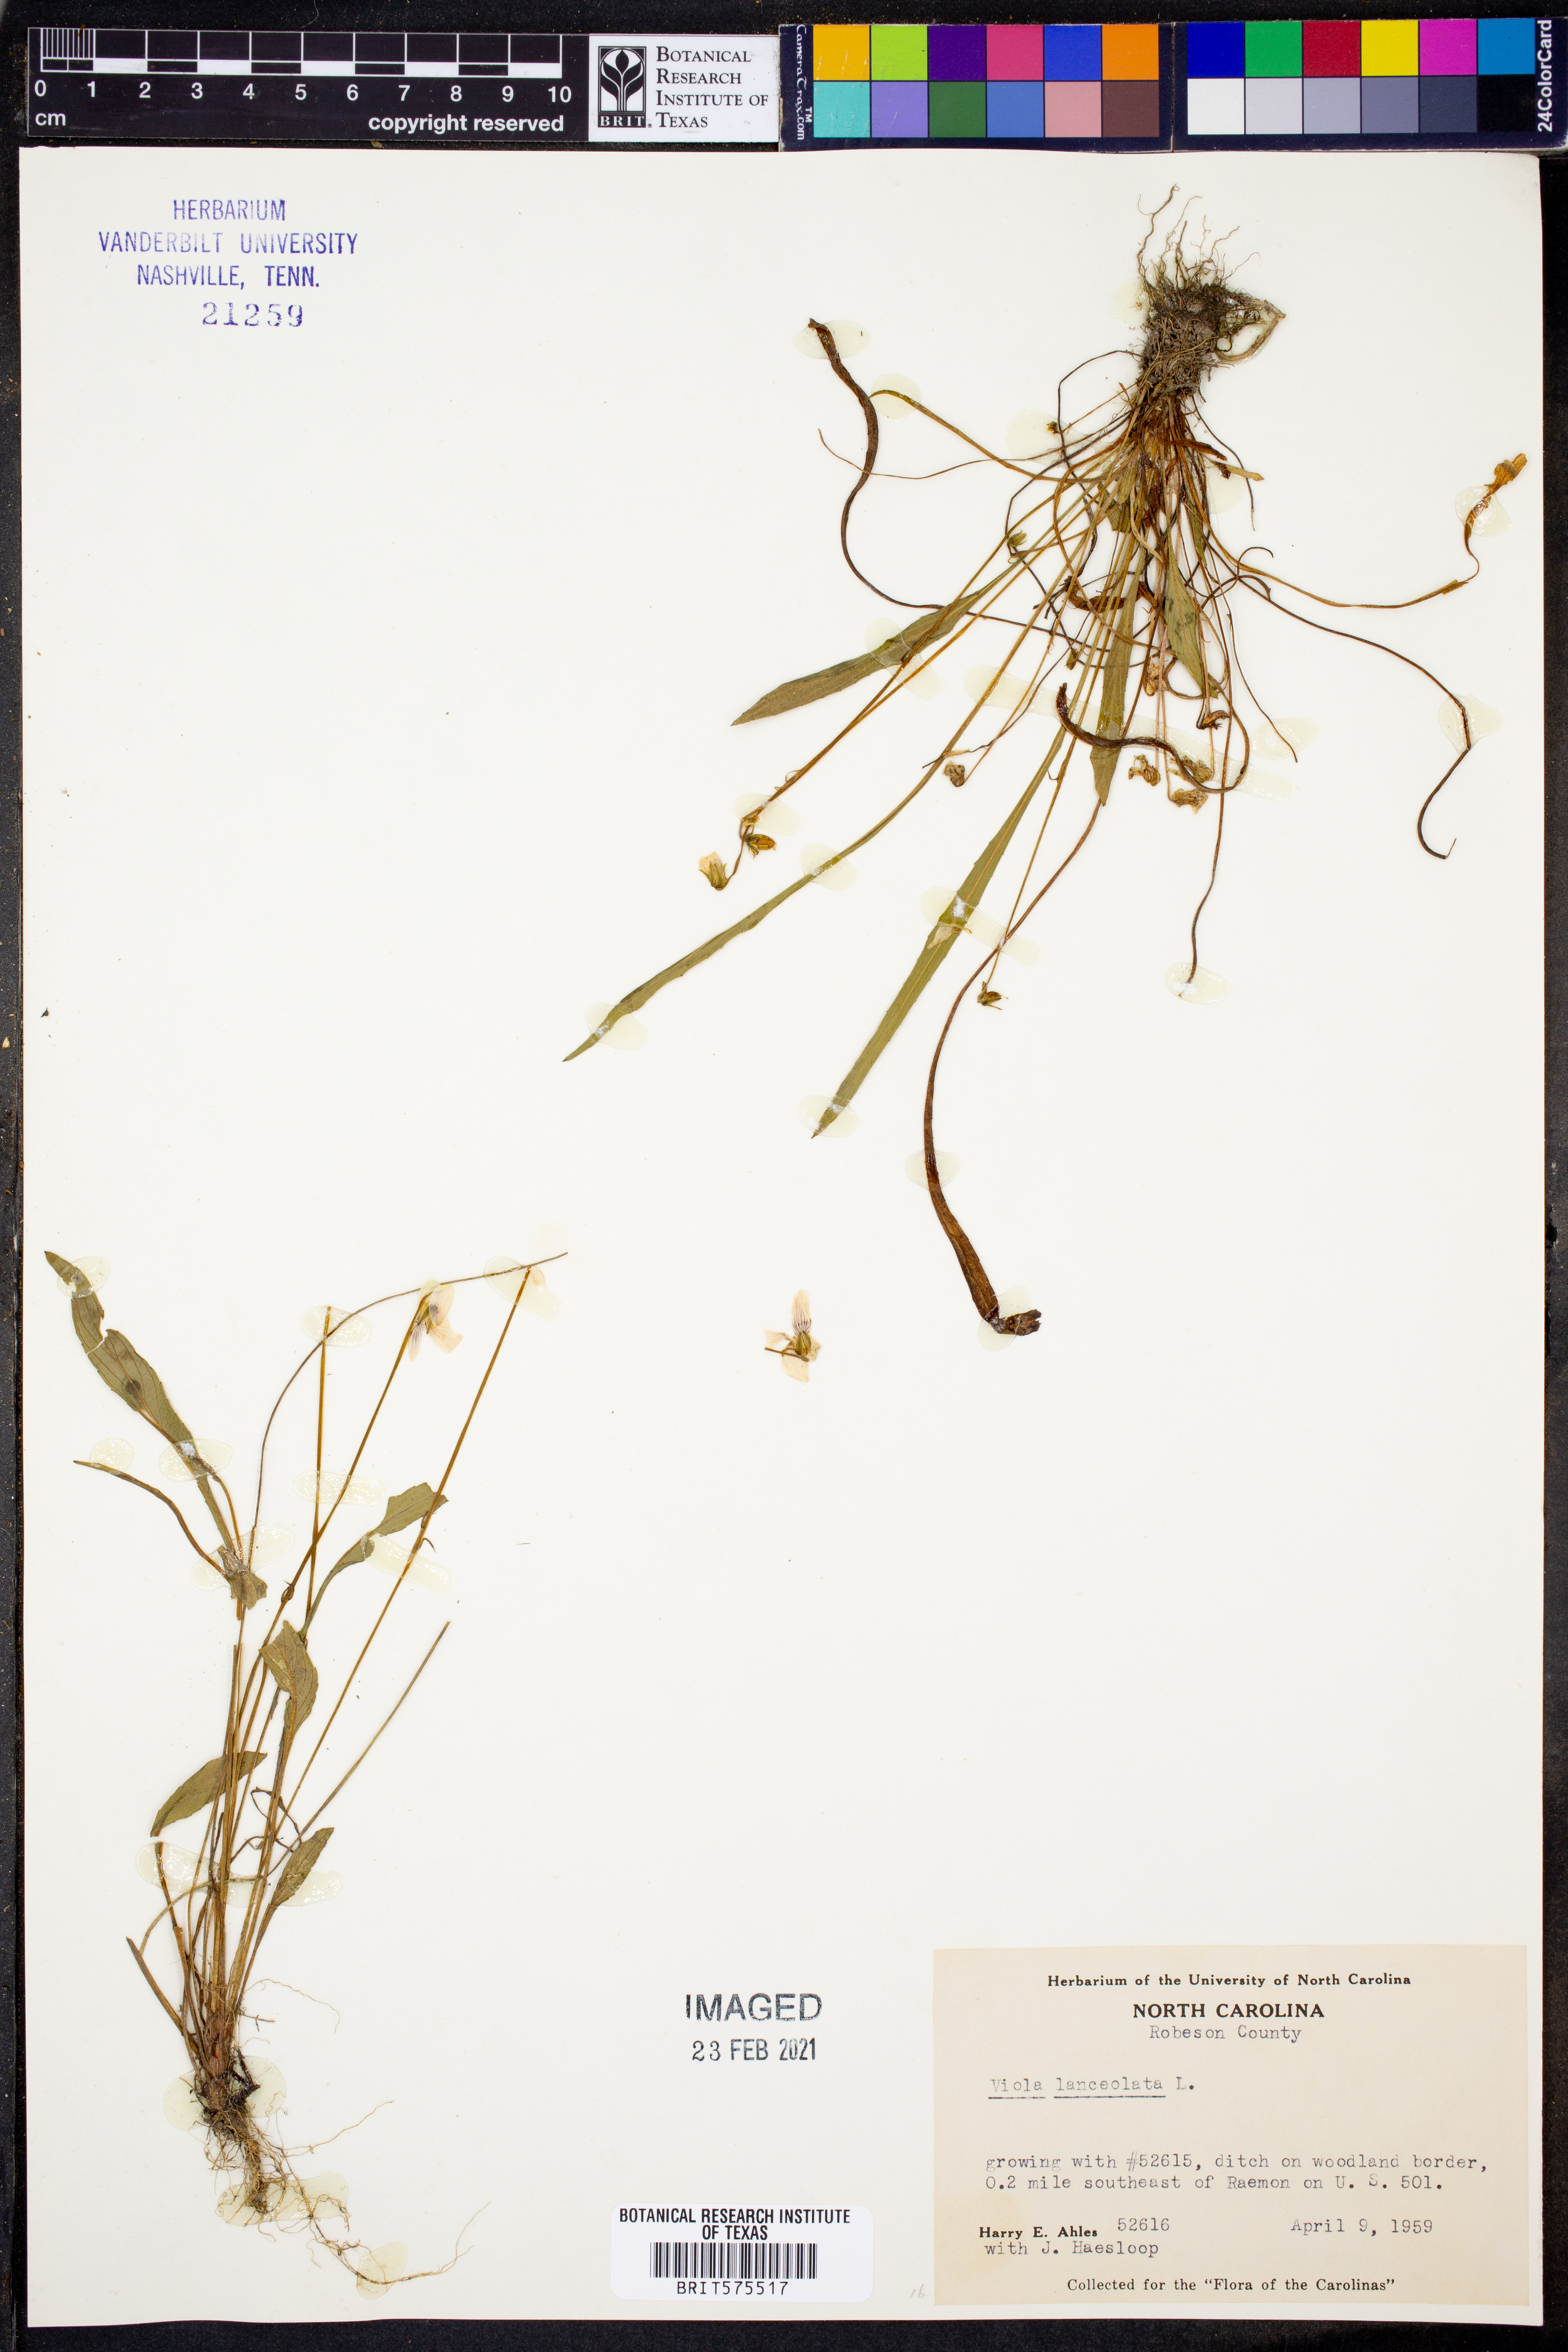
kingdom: Plantae
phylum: Tracheophyta
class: Magnoliopsida
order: Malpighiales
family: Violaceae
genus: Viola
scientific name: Viola lanceolata
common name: Bog white violet
